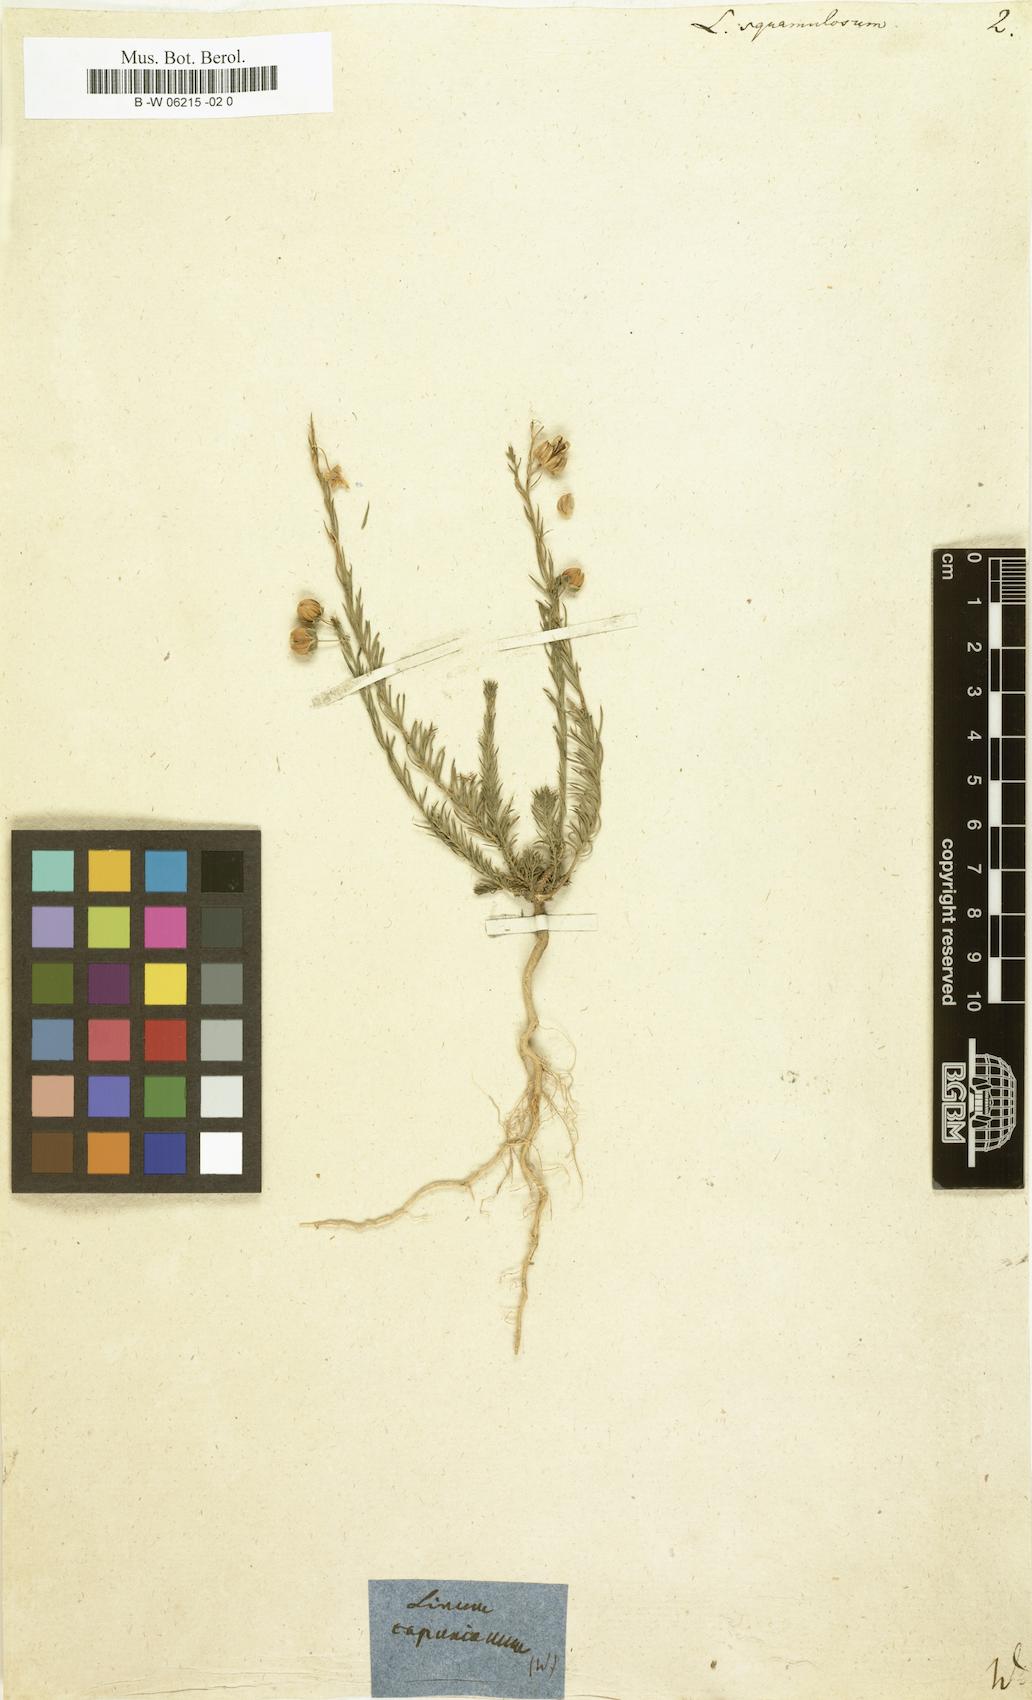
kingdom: Plantae
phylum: Tracheophyta
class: Magnoliopsida
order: Malpighiales
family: Linaceae
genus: Linum
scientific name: Linum austriacum
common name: Austrian flax
